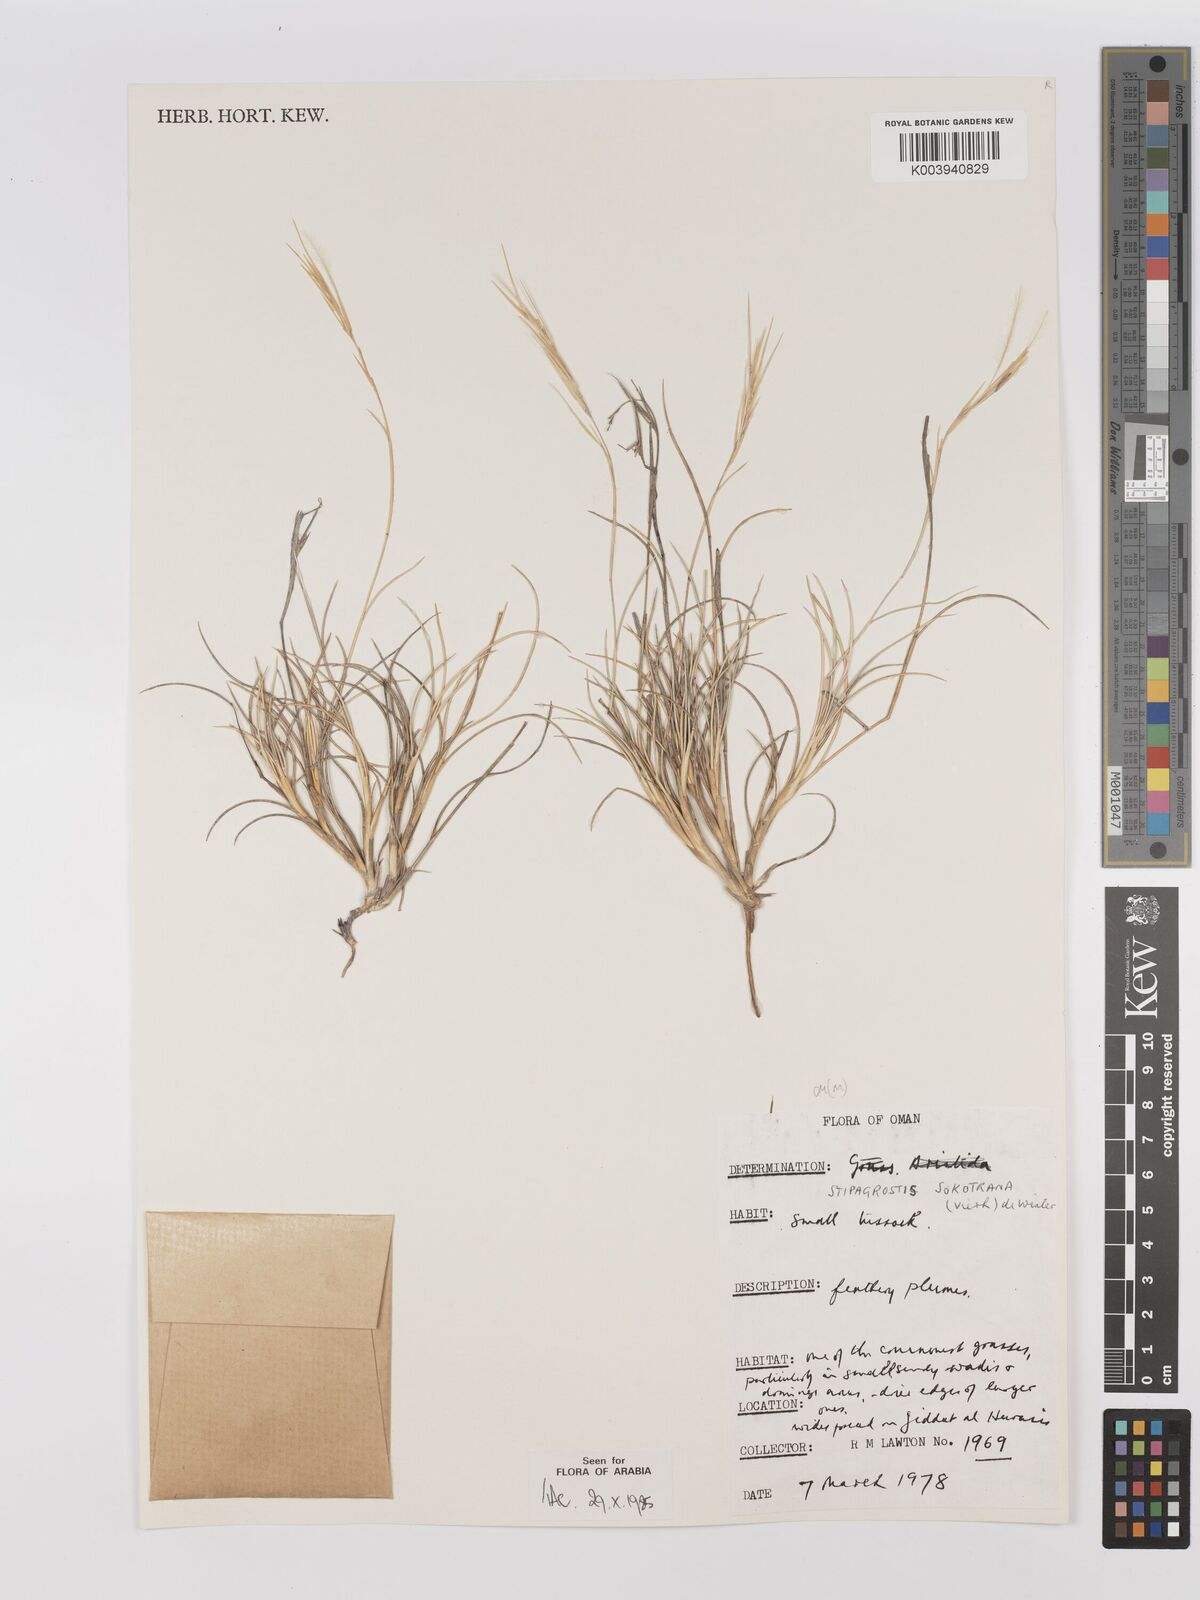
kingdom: Plantae
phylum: Tracheophyta
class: Liliopsida
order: Poales
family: Poaceae
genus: Stipagrostis
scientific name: Stipagrostis sokotrana
